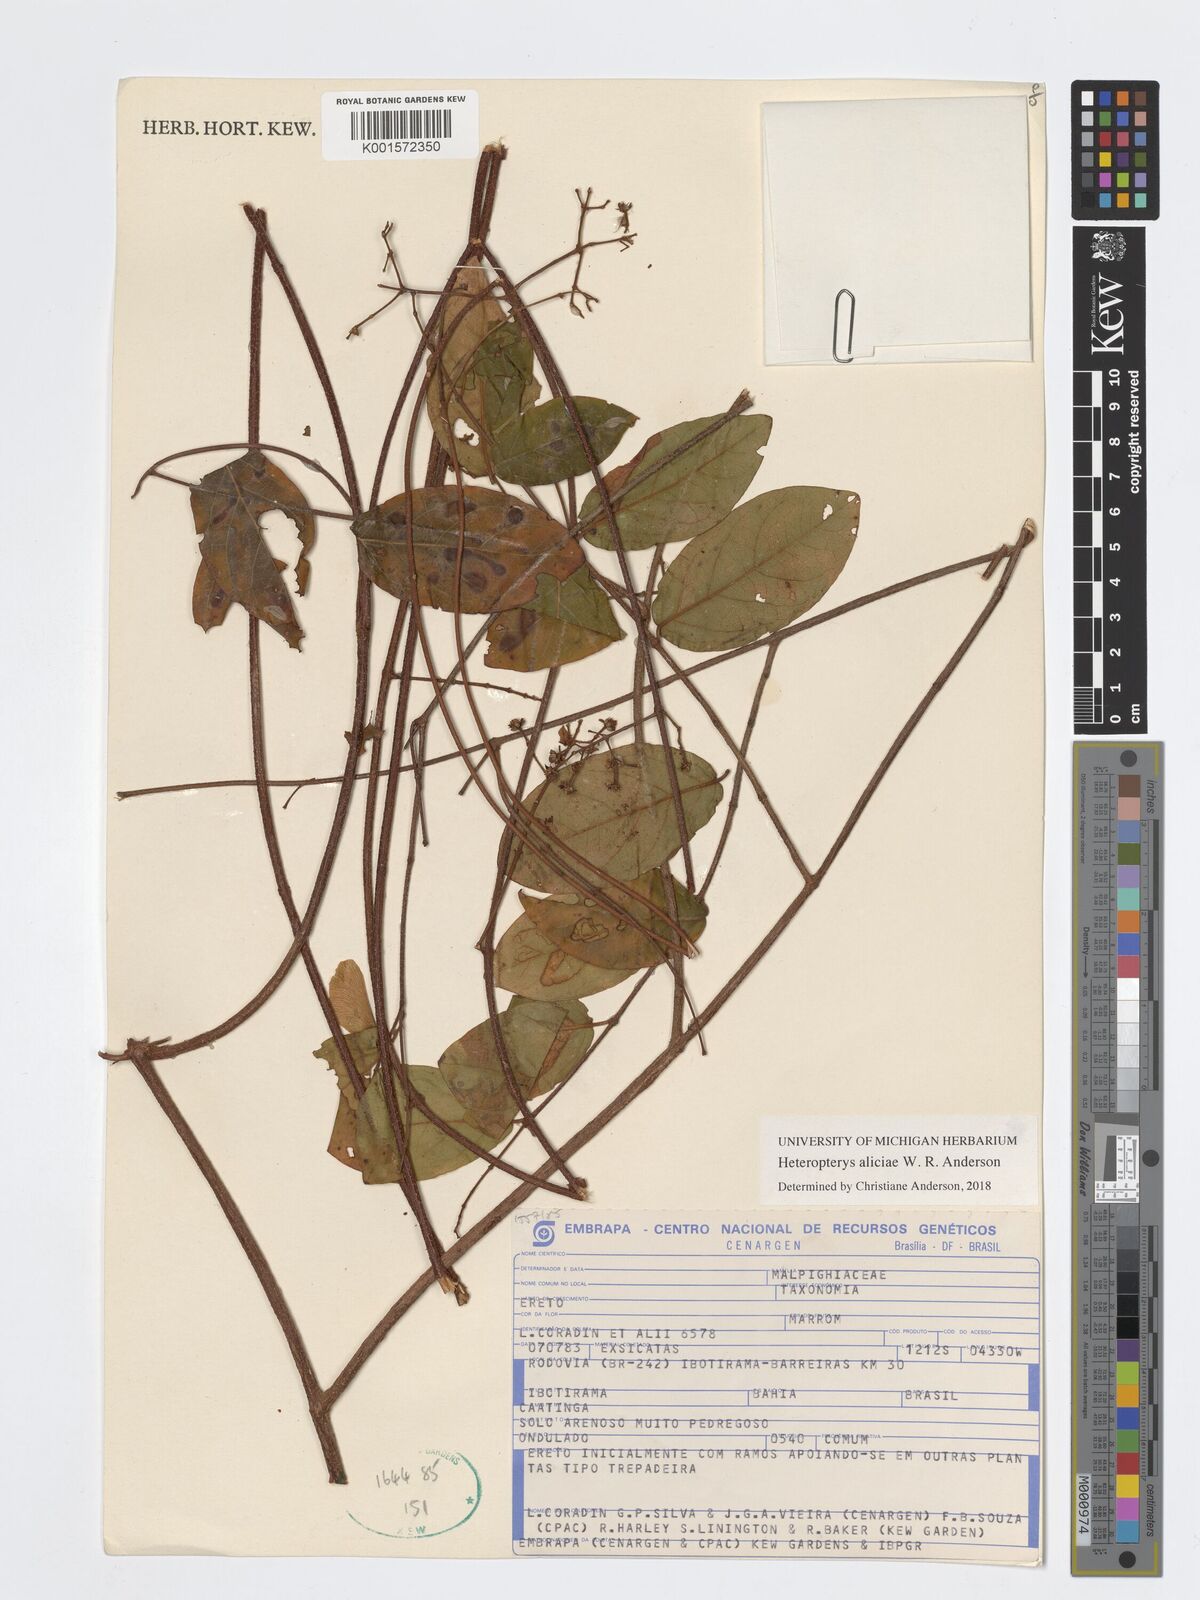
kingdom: Plantae
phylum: Tracheophyta
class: Magnoliopsida
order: Malpighiales
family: Malpighiaceae
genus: Heteropterys
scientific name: Heteropterys aliciae
